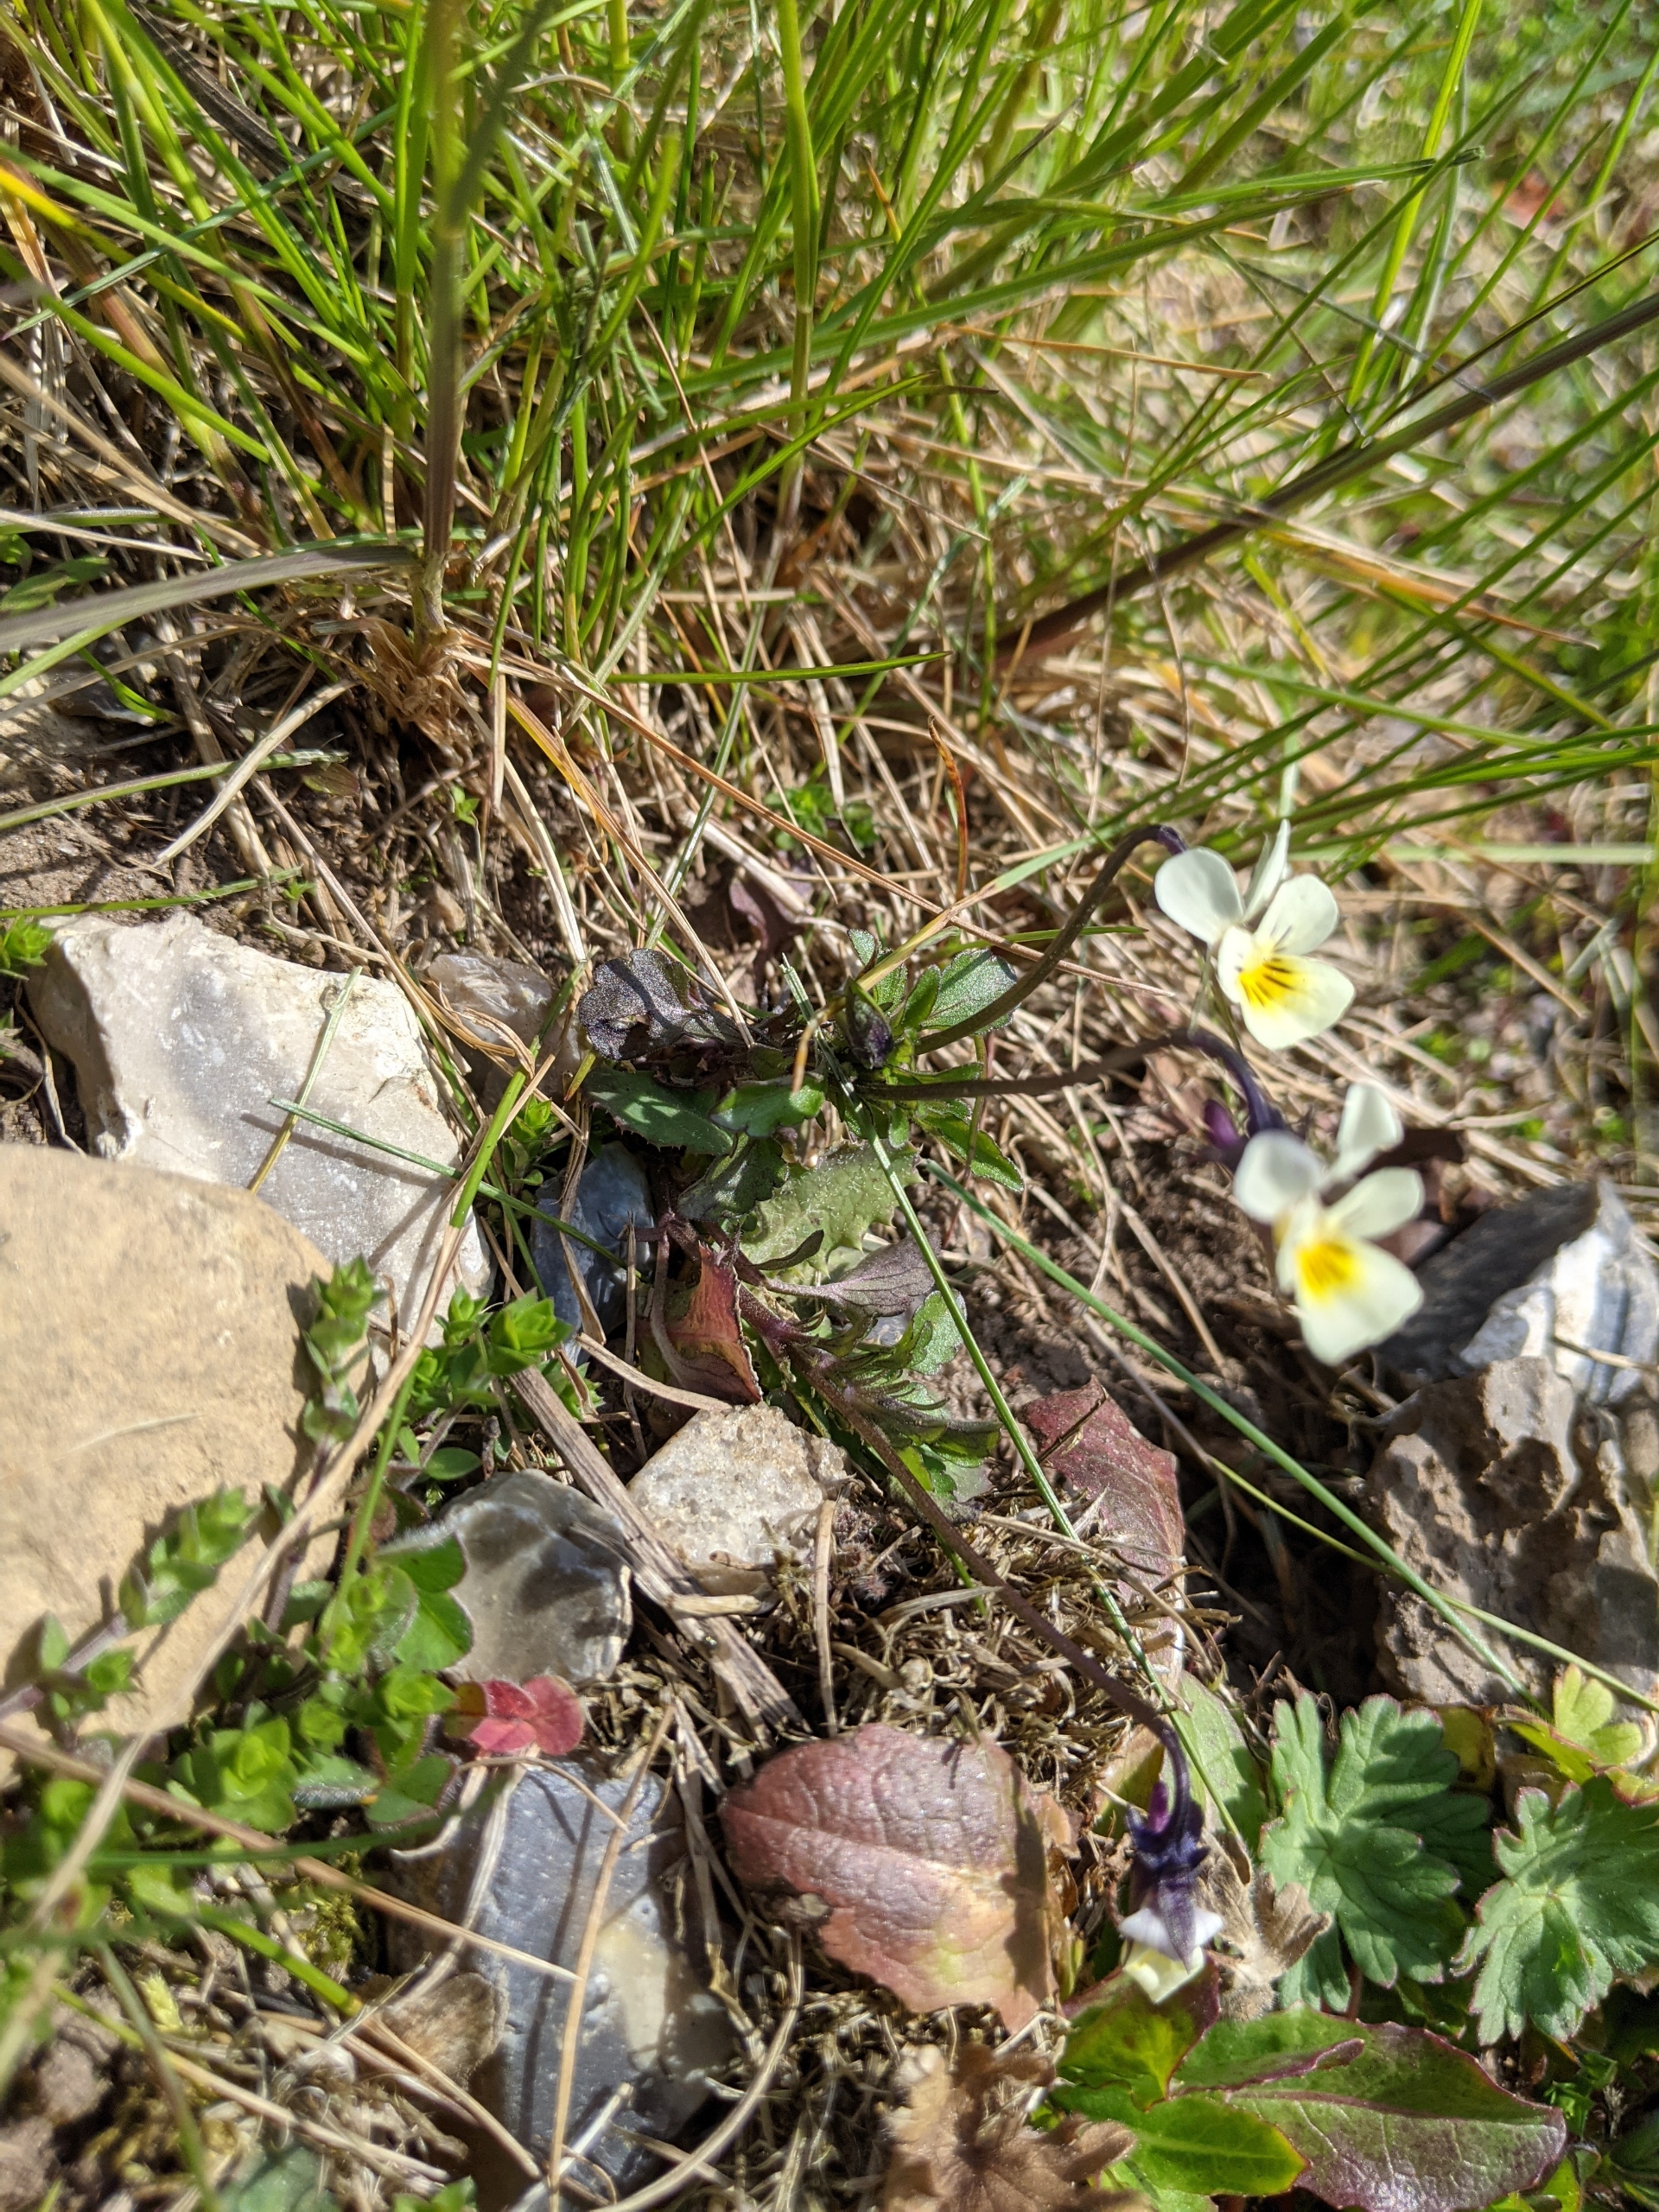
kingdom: Plantae
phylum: Tracheophyta
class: Magnoliopsida
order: Malpighiales
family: Violaceae
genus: Viola
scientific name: Viola arvensis
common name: Ager-stedmoderblomst
